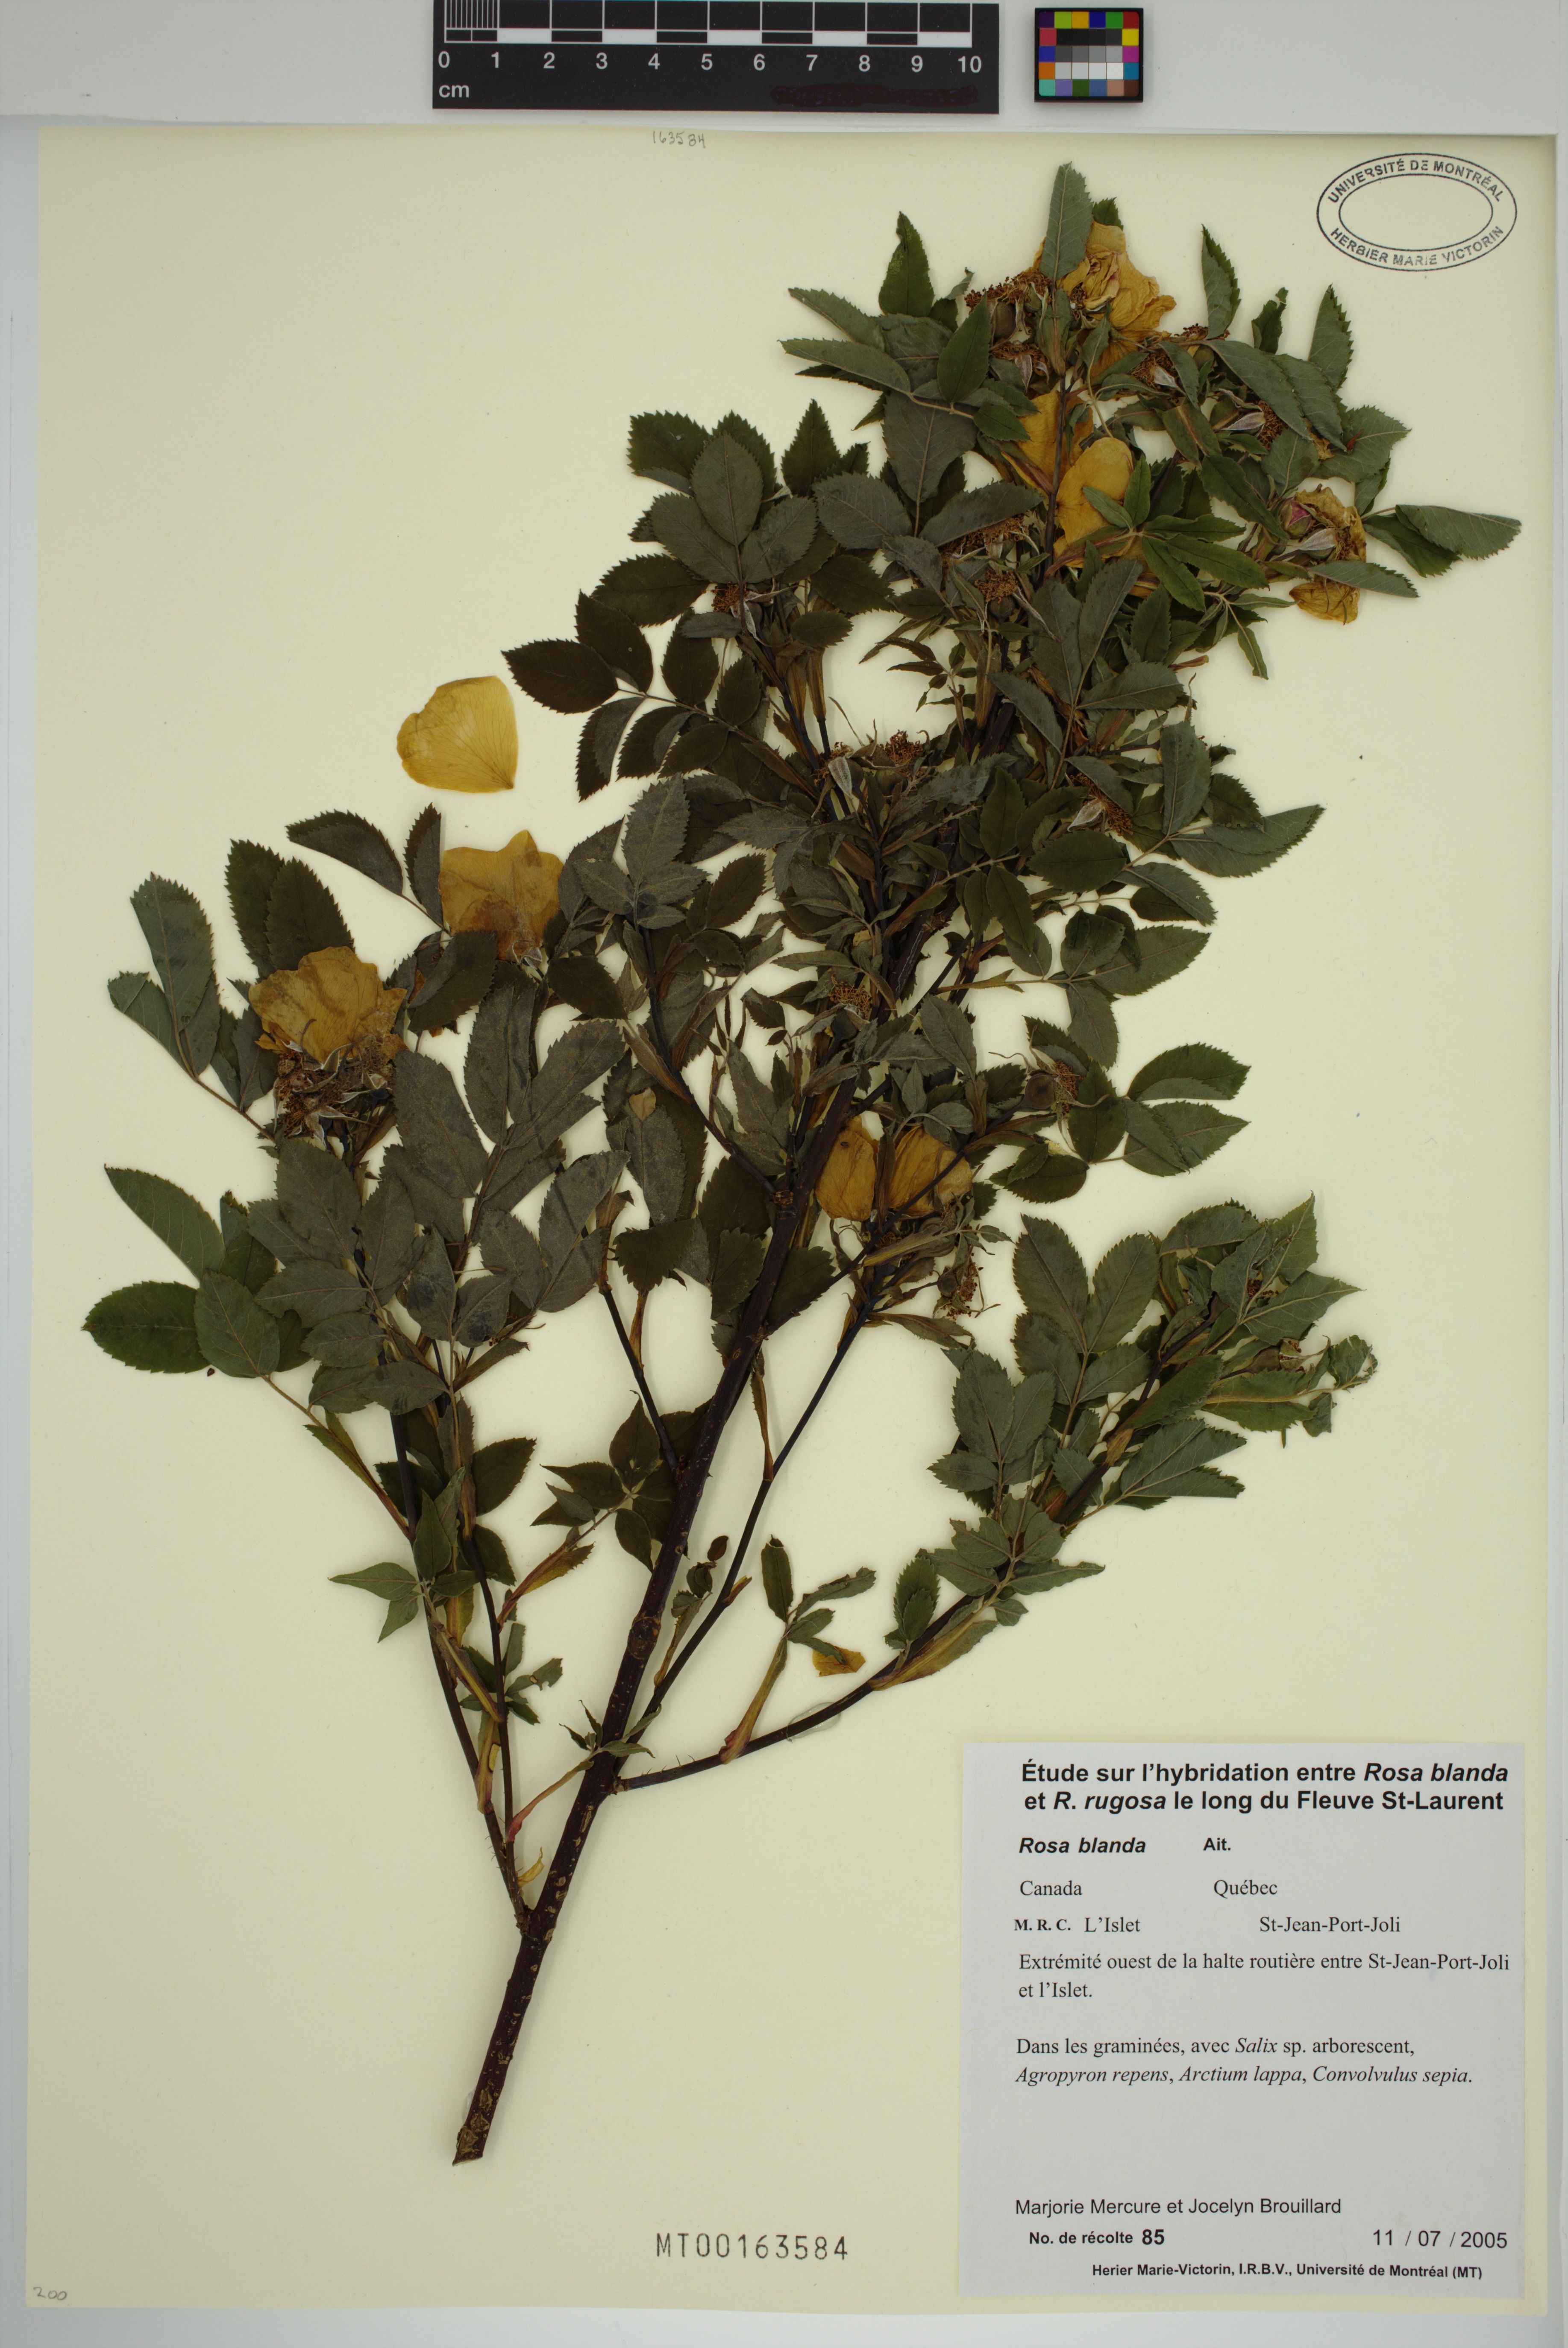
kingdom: Plantae
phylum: Tracheophyta
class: Magnoliopsida
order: Rosales
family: Rosaceae
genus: Rosa
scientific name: Rosa blanda
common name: Smooth rose
